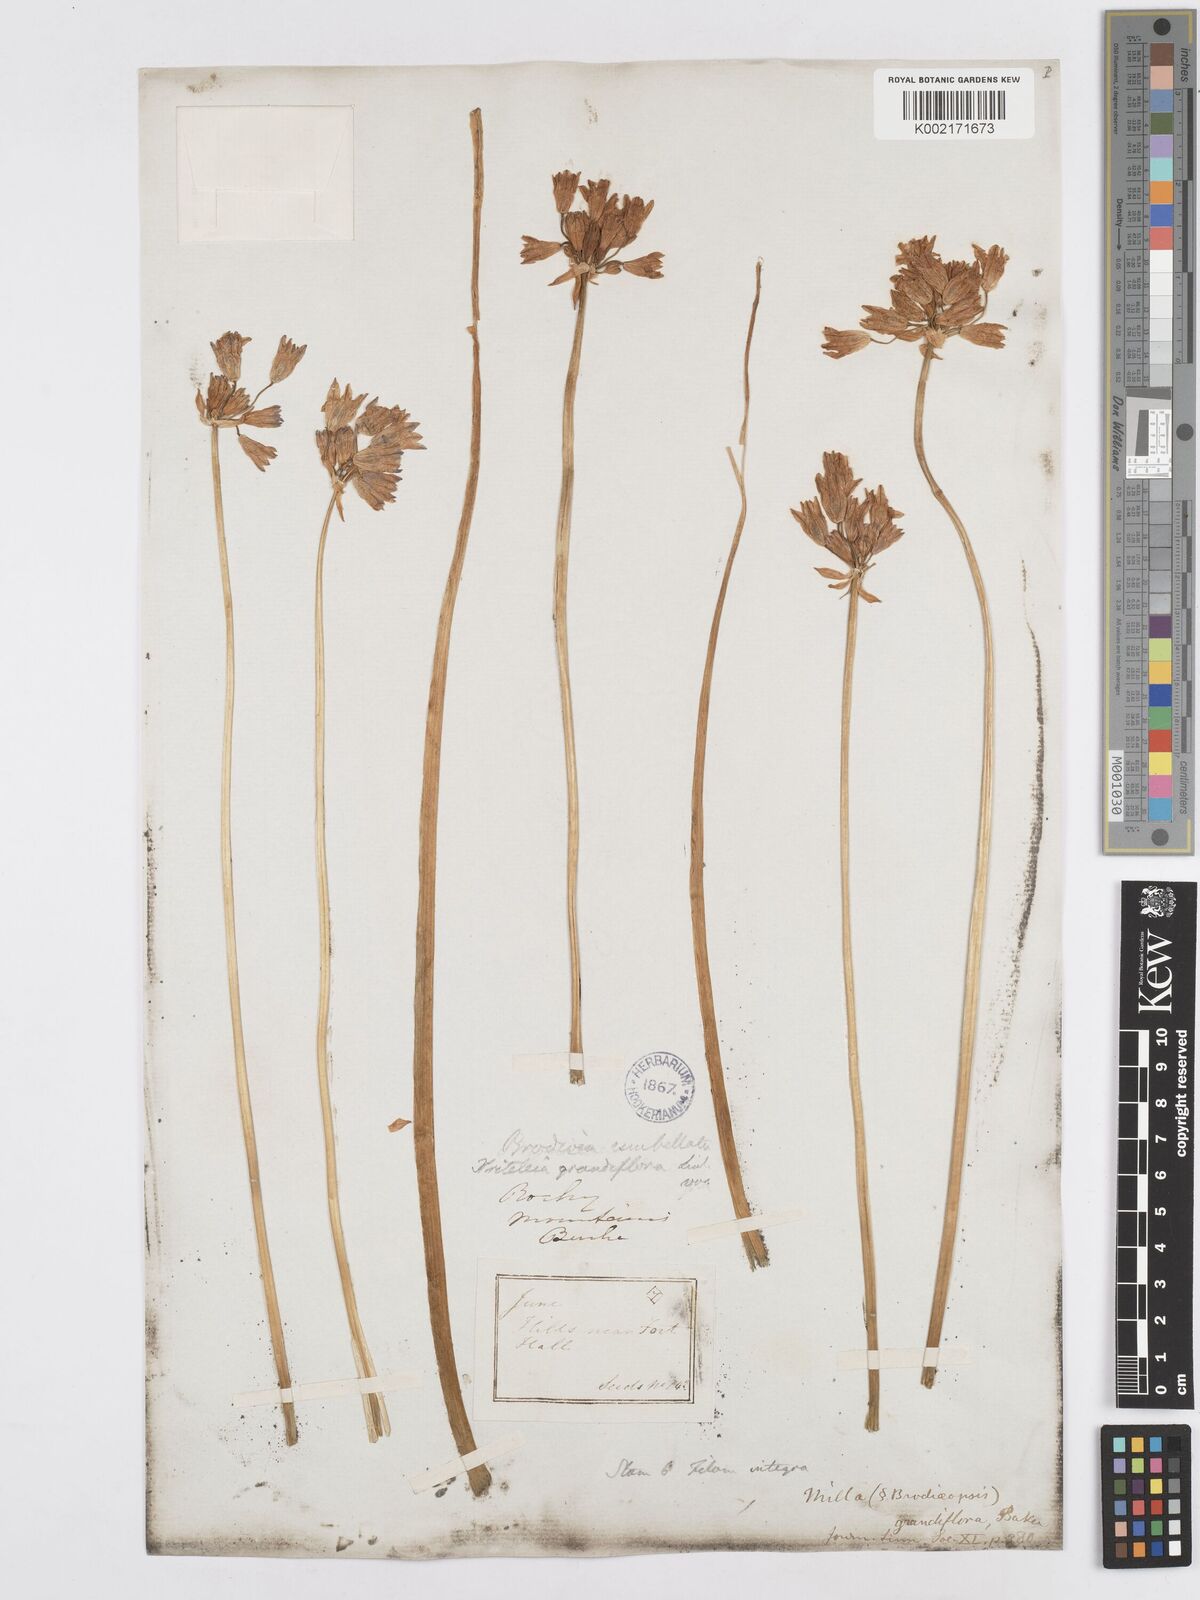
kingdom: Plantae
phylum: Tracheophyta
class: Liliopsida
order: Asparagales
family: Asparagaceae
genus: Triteleia
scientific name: Triteleia grandiflora
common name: Wild hyacinth
